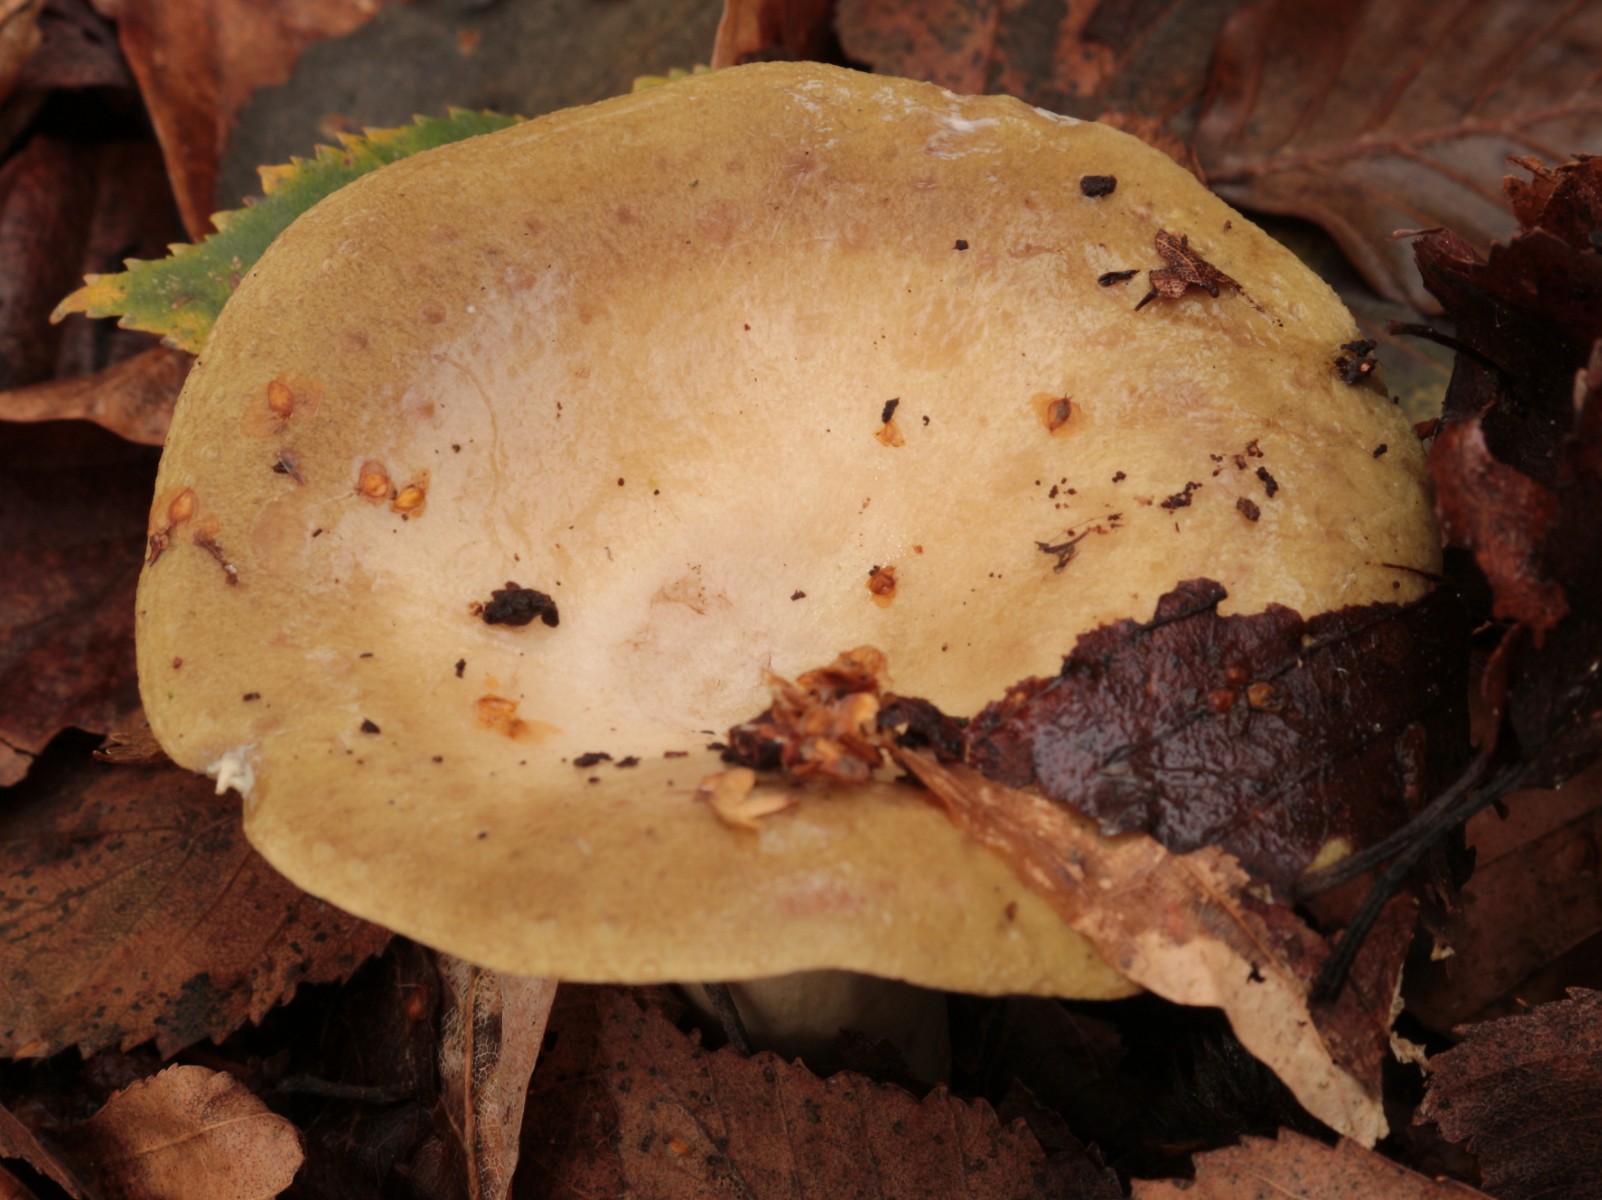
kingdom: Fungi
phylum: Basidiomycota
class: Agaricomycetes
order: Russulales
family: Russulaceae
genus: Lactarius
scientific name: Lactarius blennius
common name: dråbeplettet mælkehat
